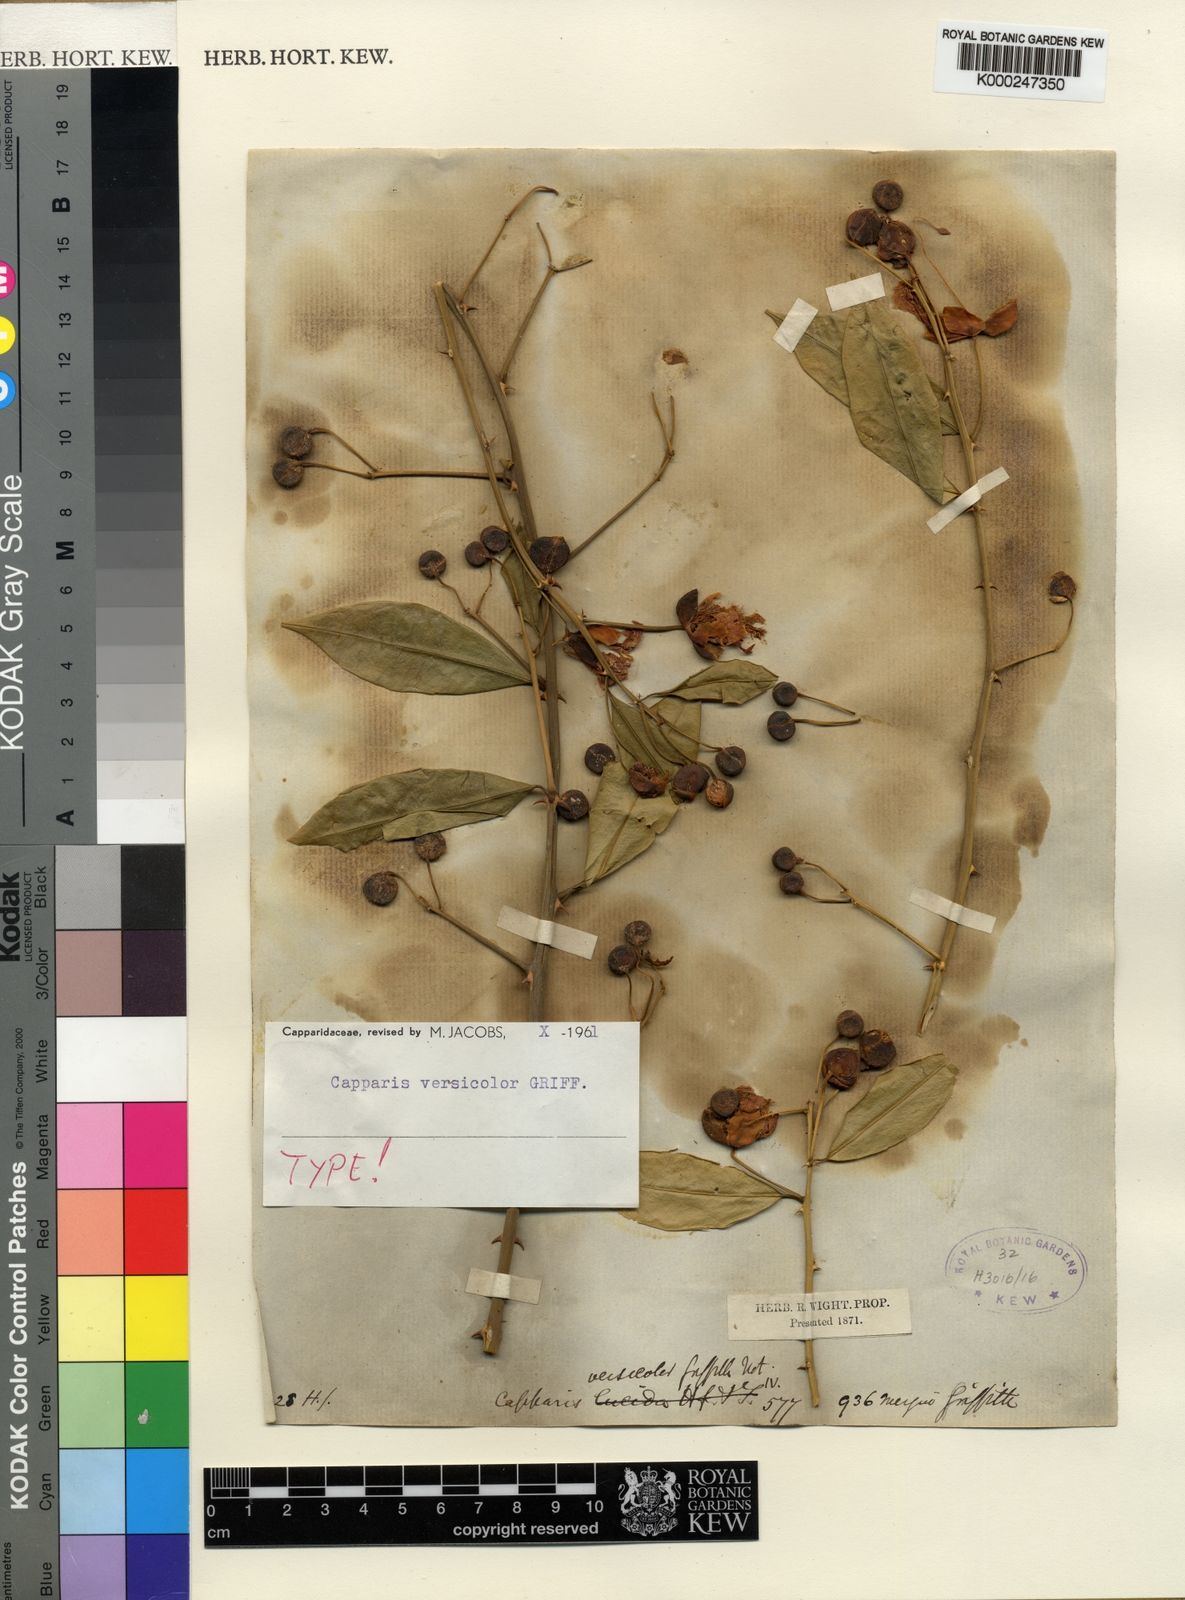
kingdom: Plantae
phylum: Tracheophyta
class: Magnoliopsida
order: Brassicales
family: Capparaceae
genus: Capparis
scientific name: Capparis versicolor
